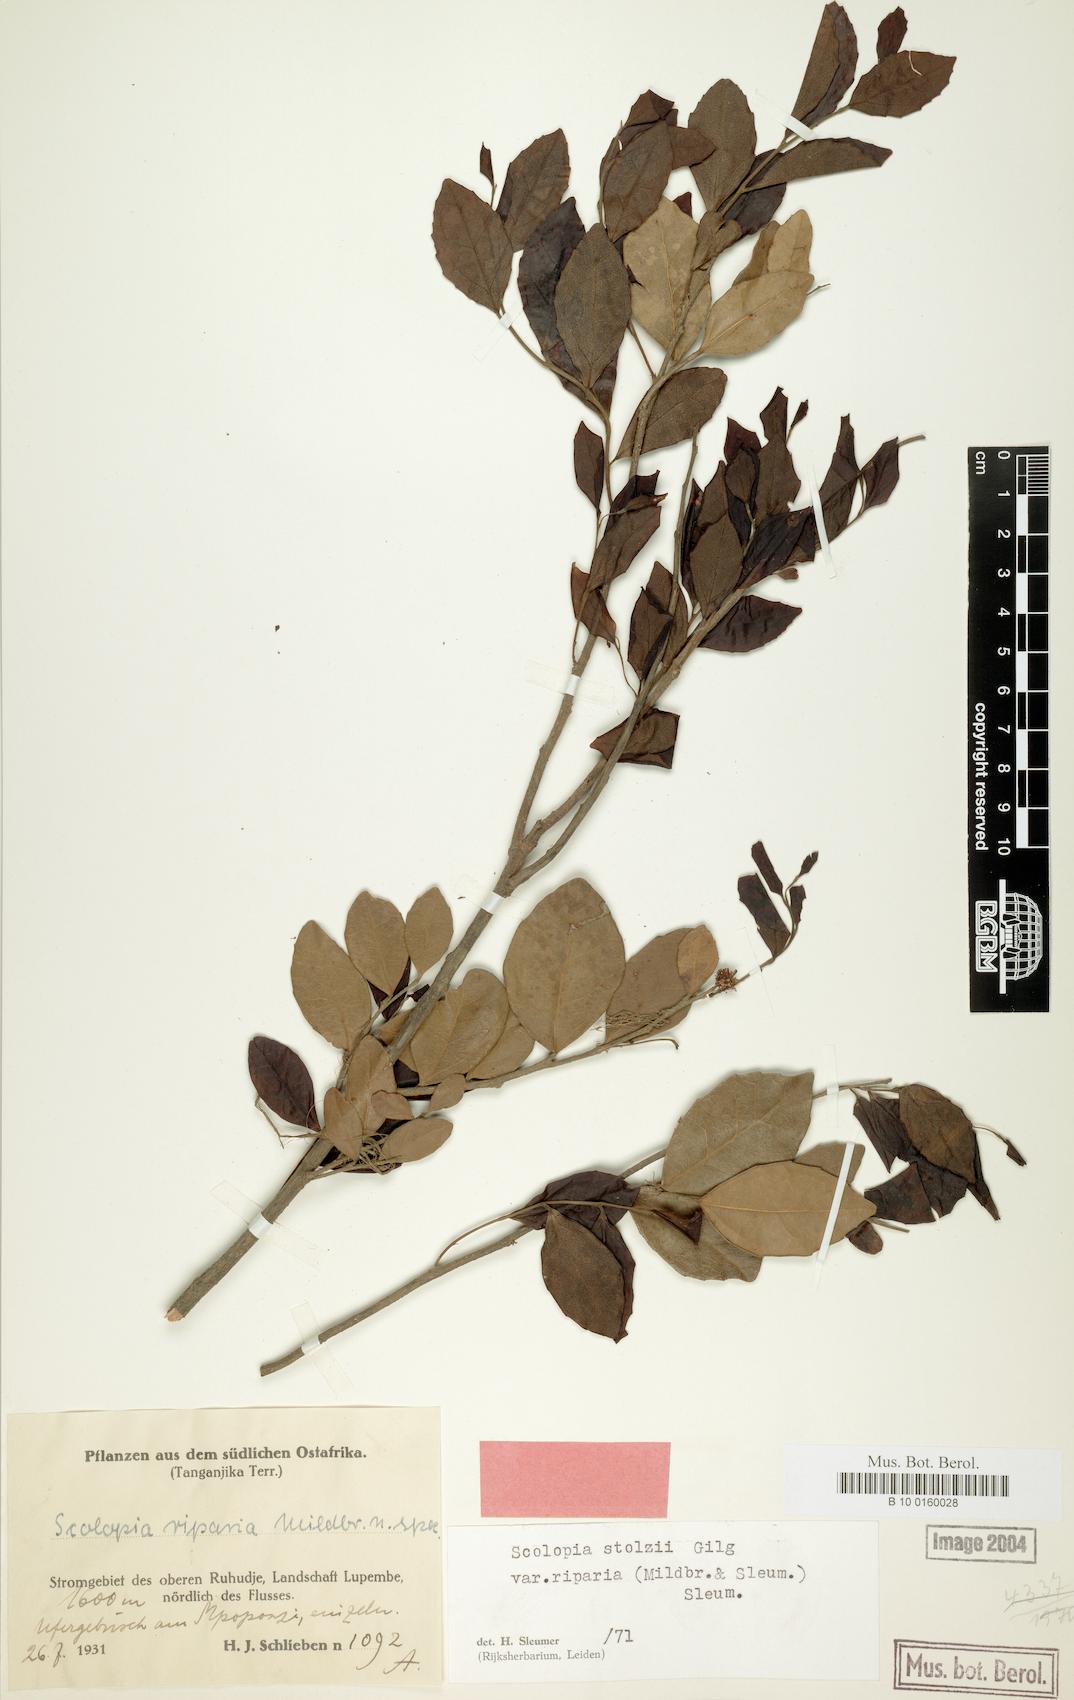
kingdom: Plantae
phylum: Tracheophyta
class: Magnoliopsida
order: Malpighiales
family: Salicaceae
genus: Scolopia
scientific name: Scolopia stolzii
